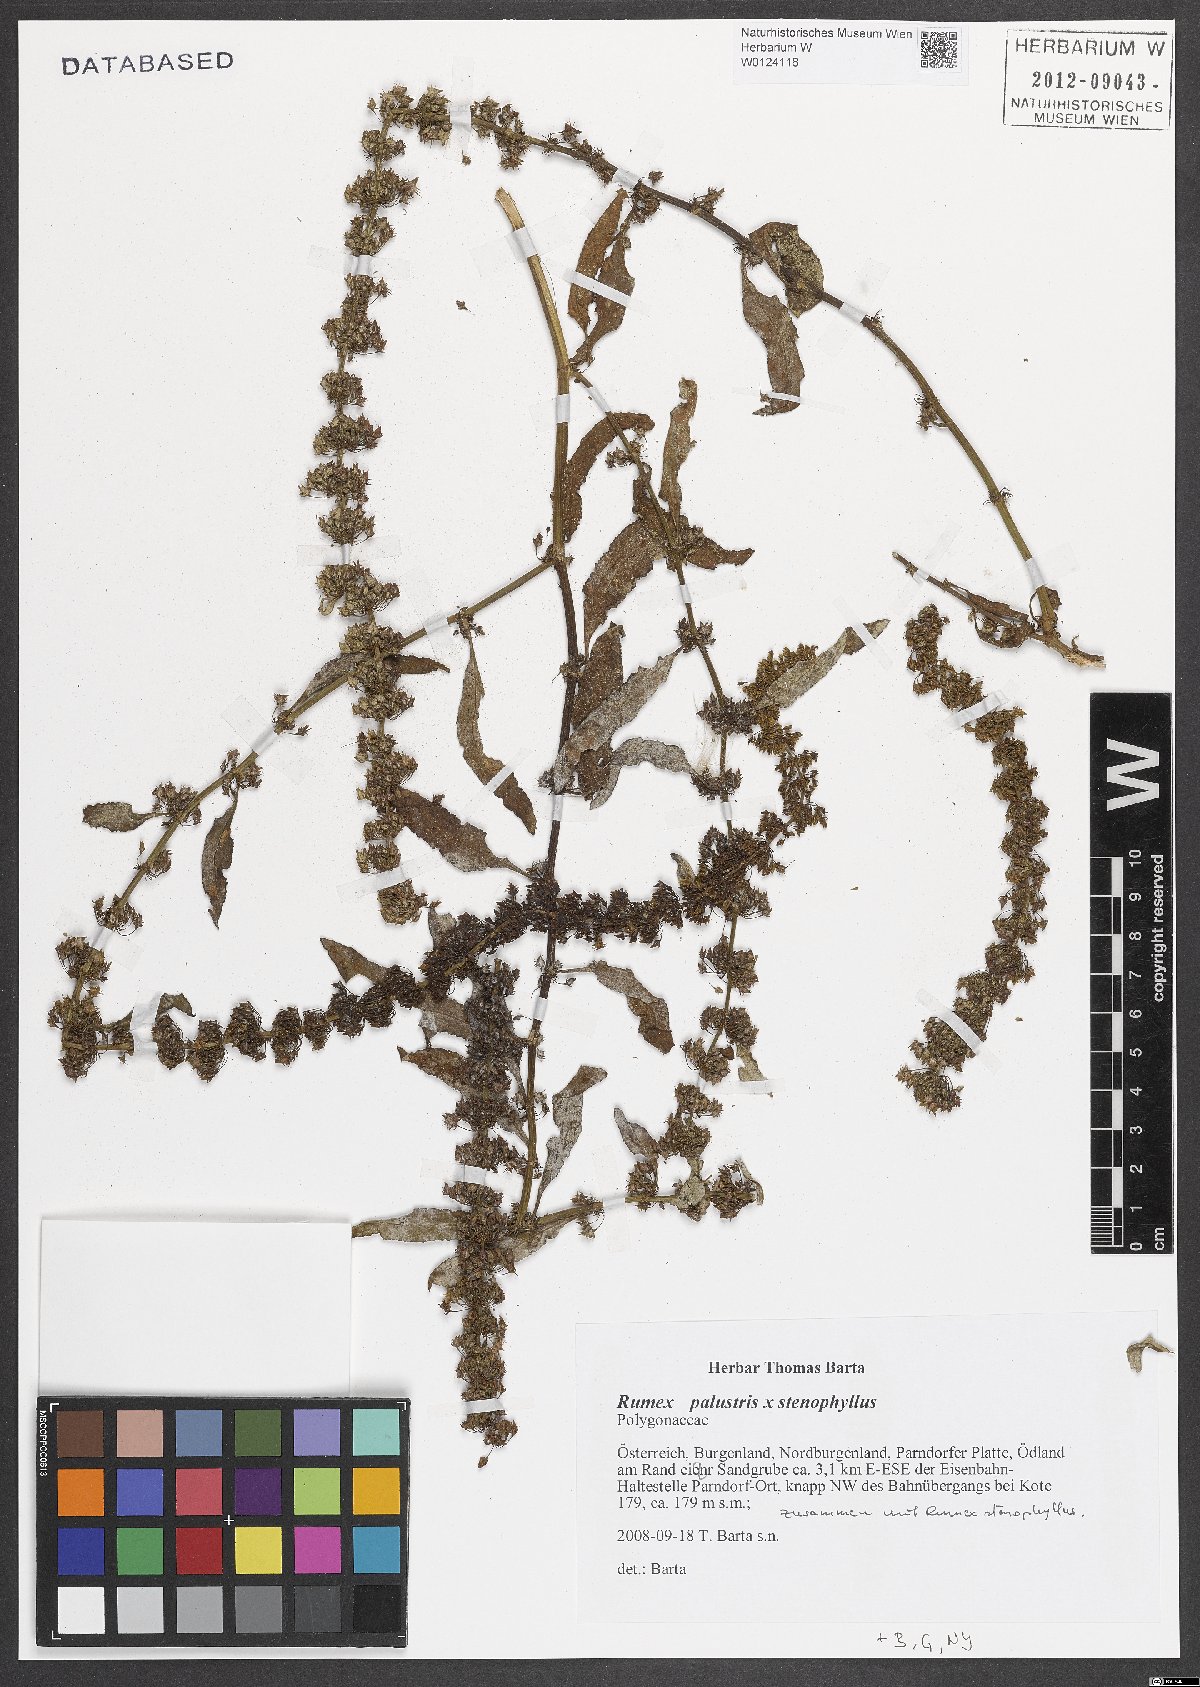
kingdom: Plantae
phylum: Tracheophyta
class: Magnoliopsida
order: Caryophyllales
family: Polygonaceae
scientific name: Polygonaceae
